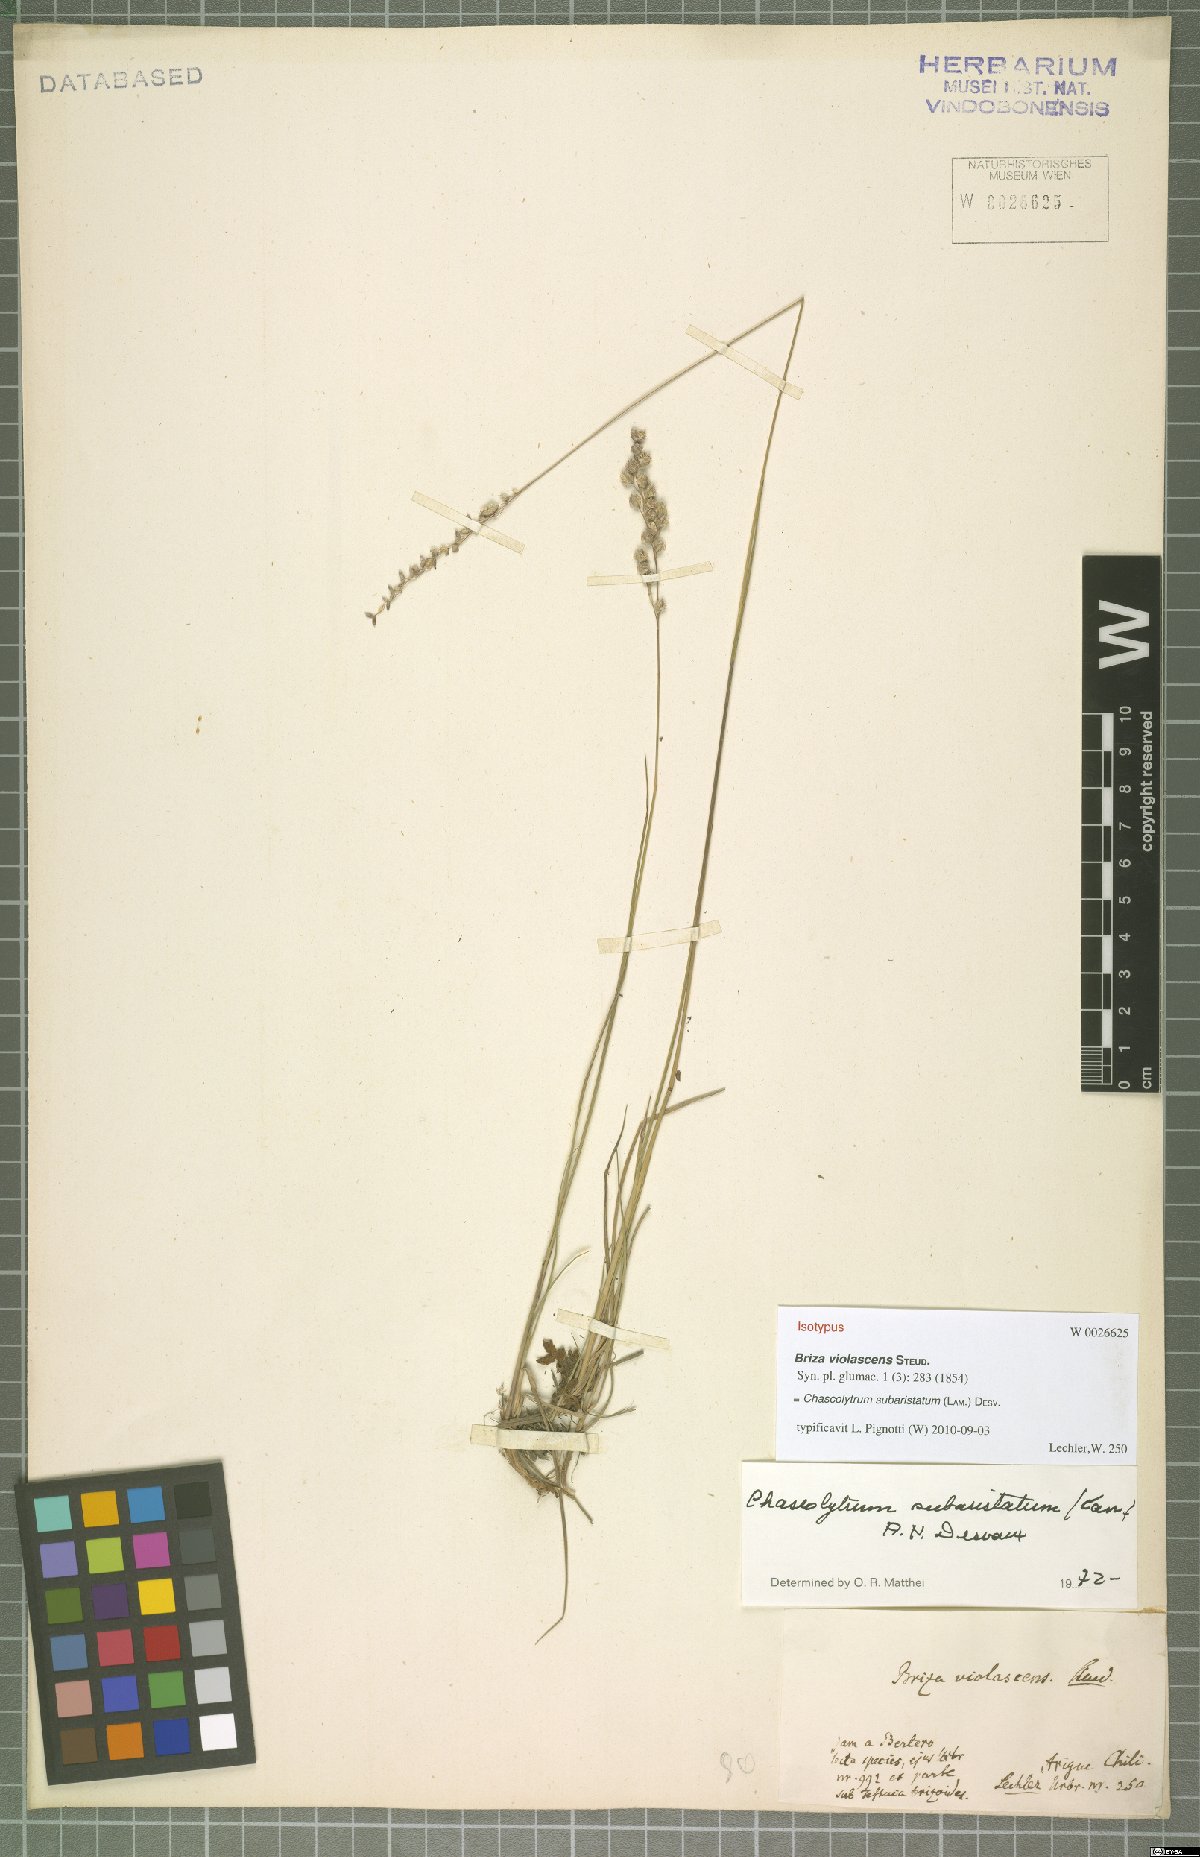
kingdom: Plantae
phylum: Tracheophyta
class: Liliopsida
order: Poales
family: Poaceae
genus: Chascolytrum
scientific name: Chascolytrum subaristatum
